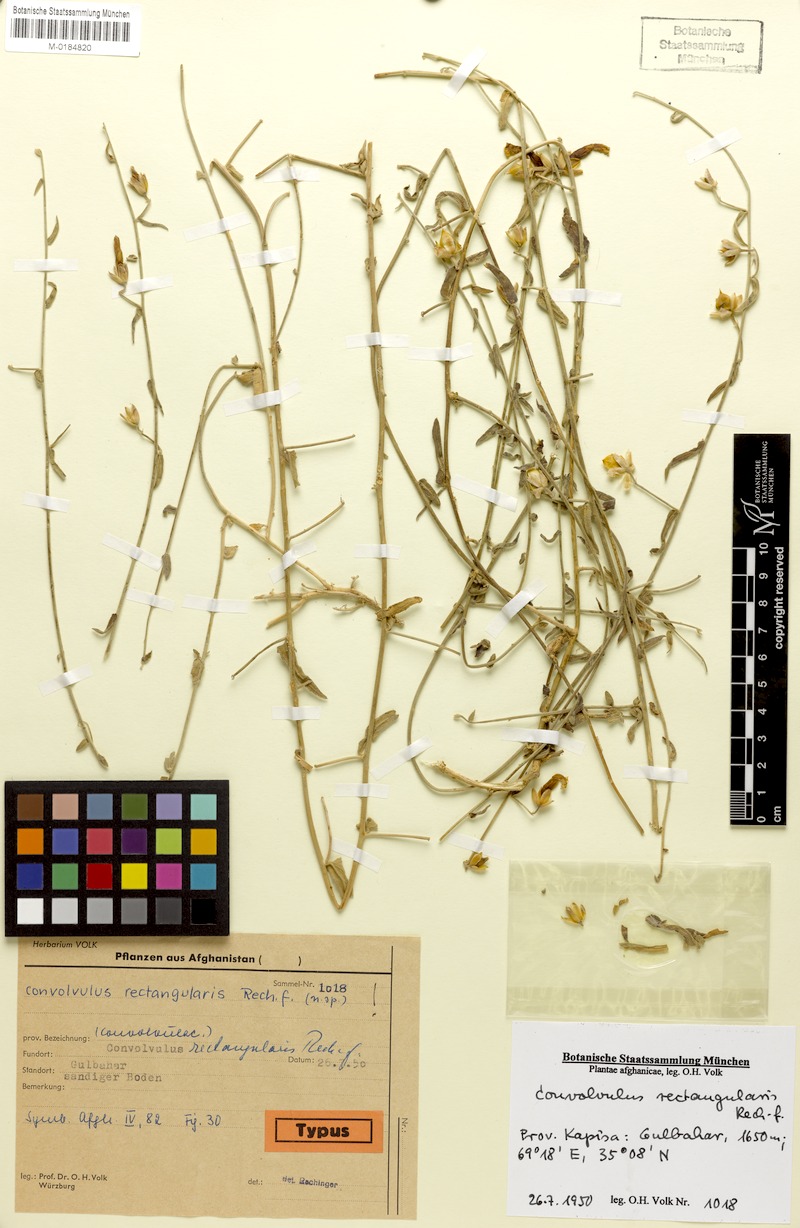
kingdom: Plantae
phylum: Tracheophyta
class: Magnoliopsida
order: Solanales
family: Convolvulaceae
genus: Convolvulus
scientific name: Convolvulus rectangularis
